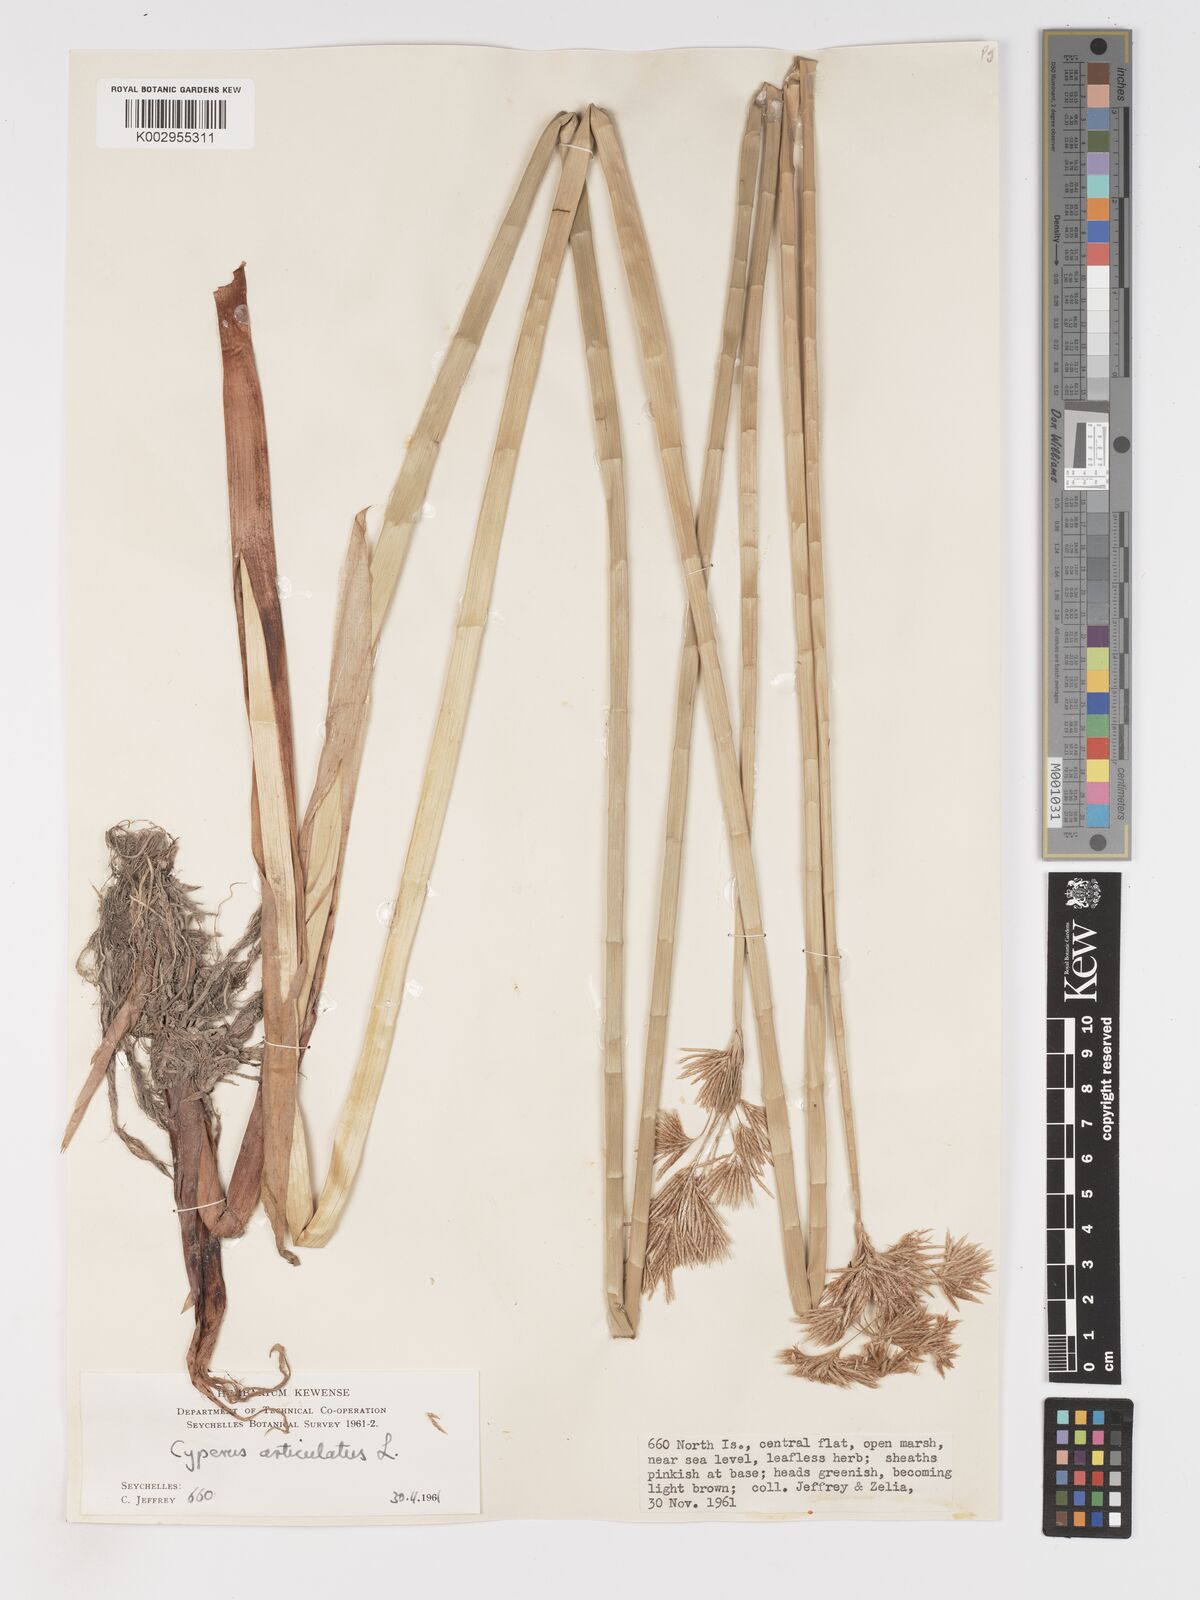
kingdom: Plantae
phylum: Tracheophyta
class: Liliopsida
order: Poales
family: Cyperaceae
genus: Cyperus
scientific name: Cyperus articulatus
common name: Jointed flatsedge
